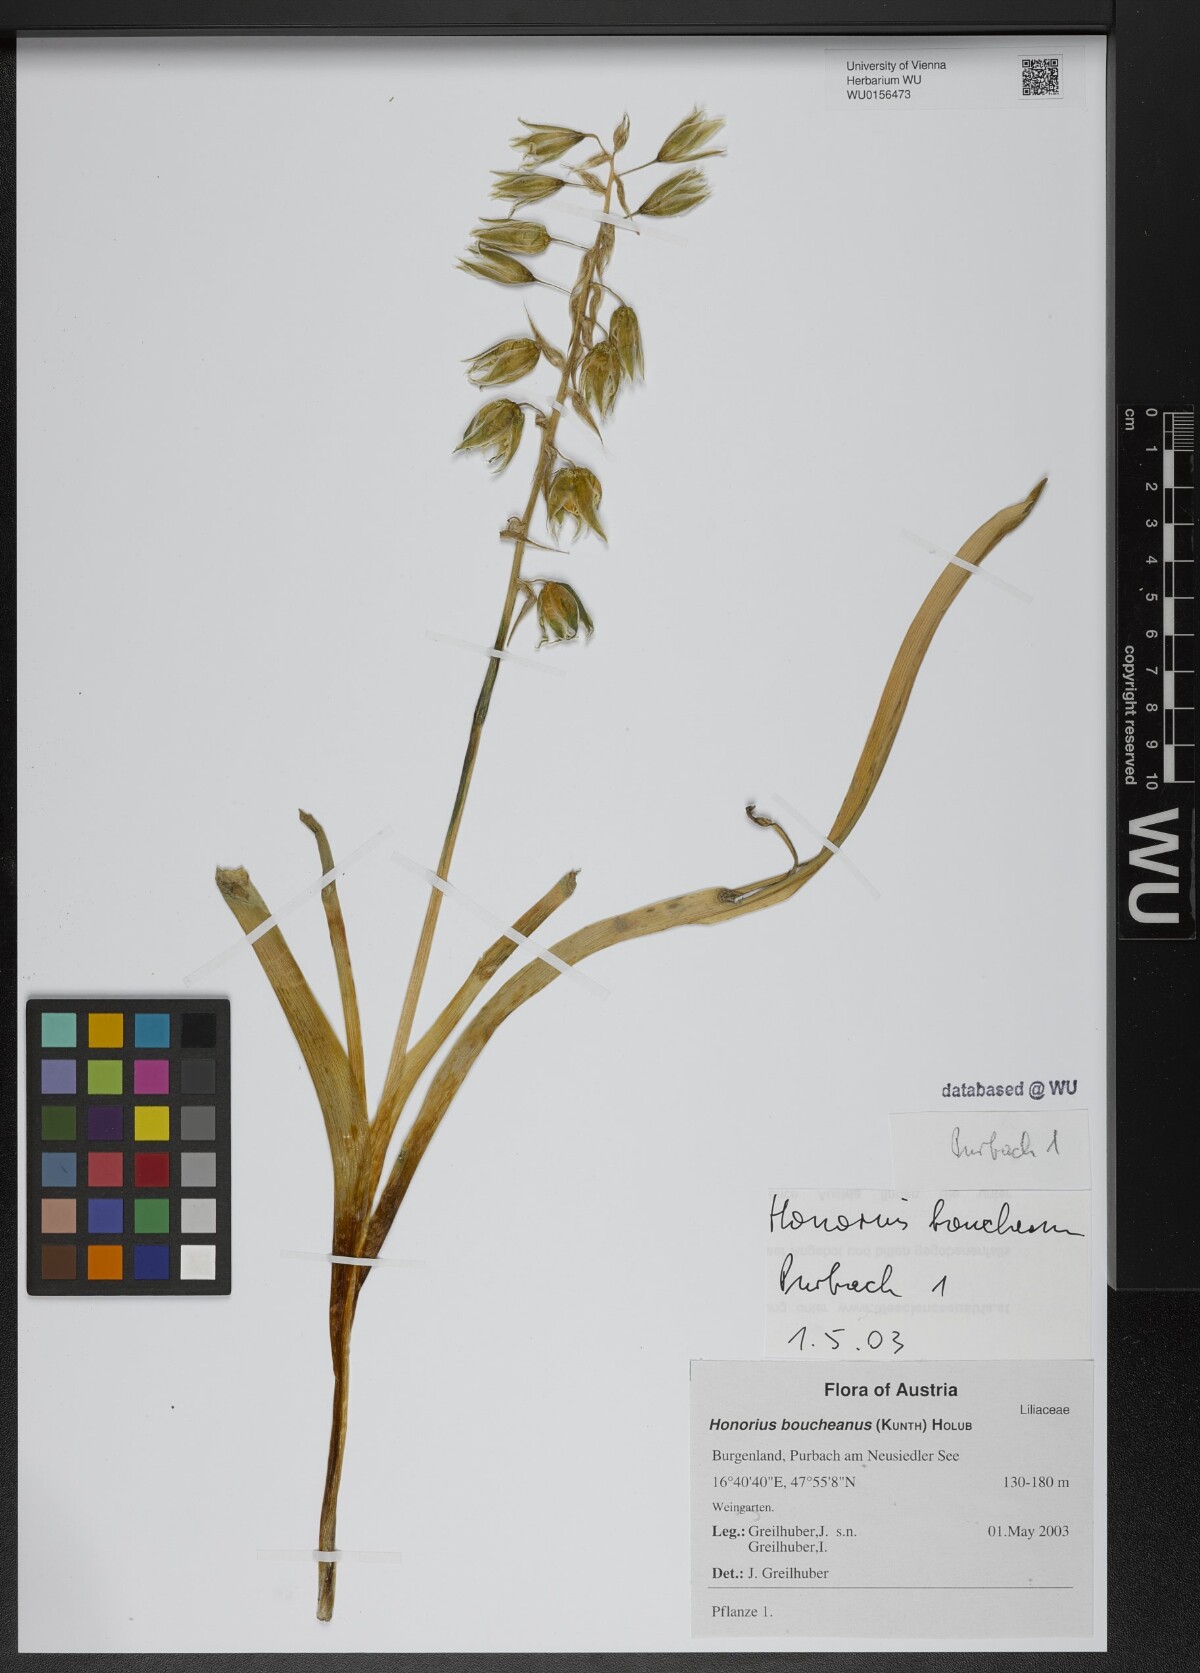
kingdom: Plantae
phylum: Tracheophyta
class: Liliopsida
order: Asparagales
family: Asparagaceae
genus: Ornithogalum
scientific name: Ornithogalum boucheanum
